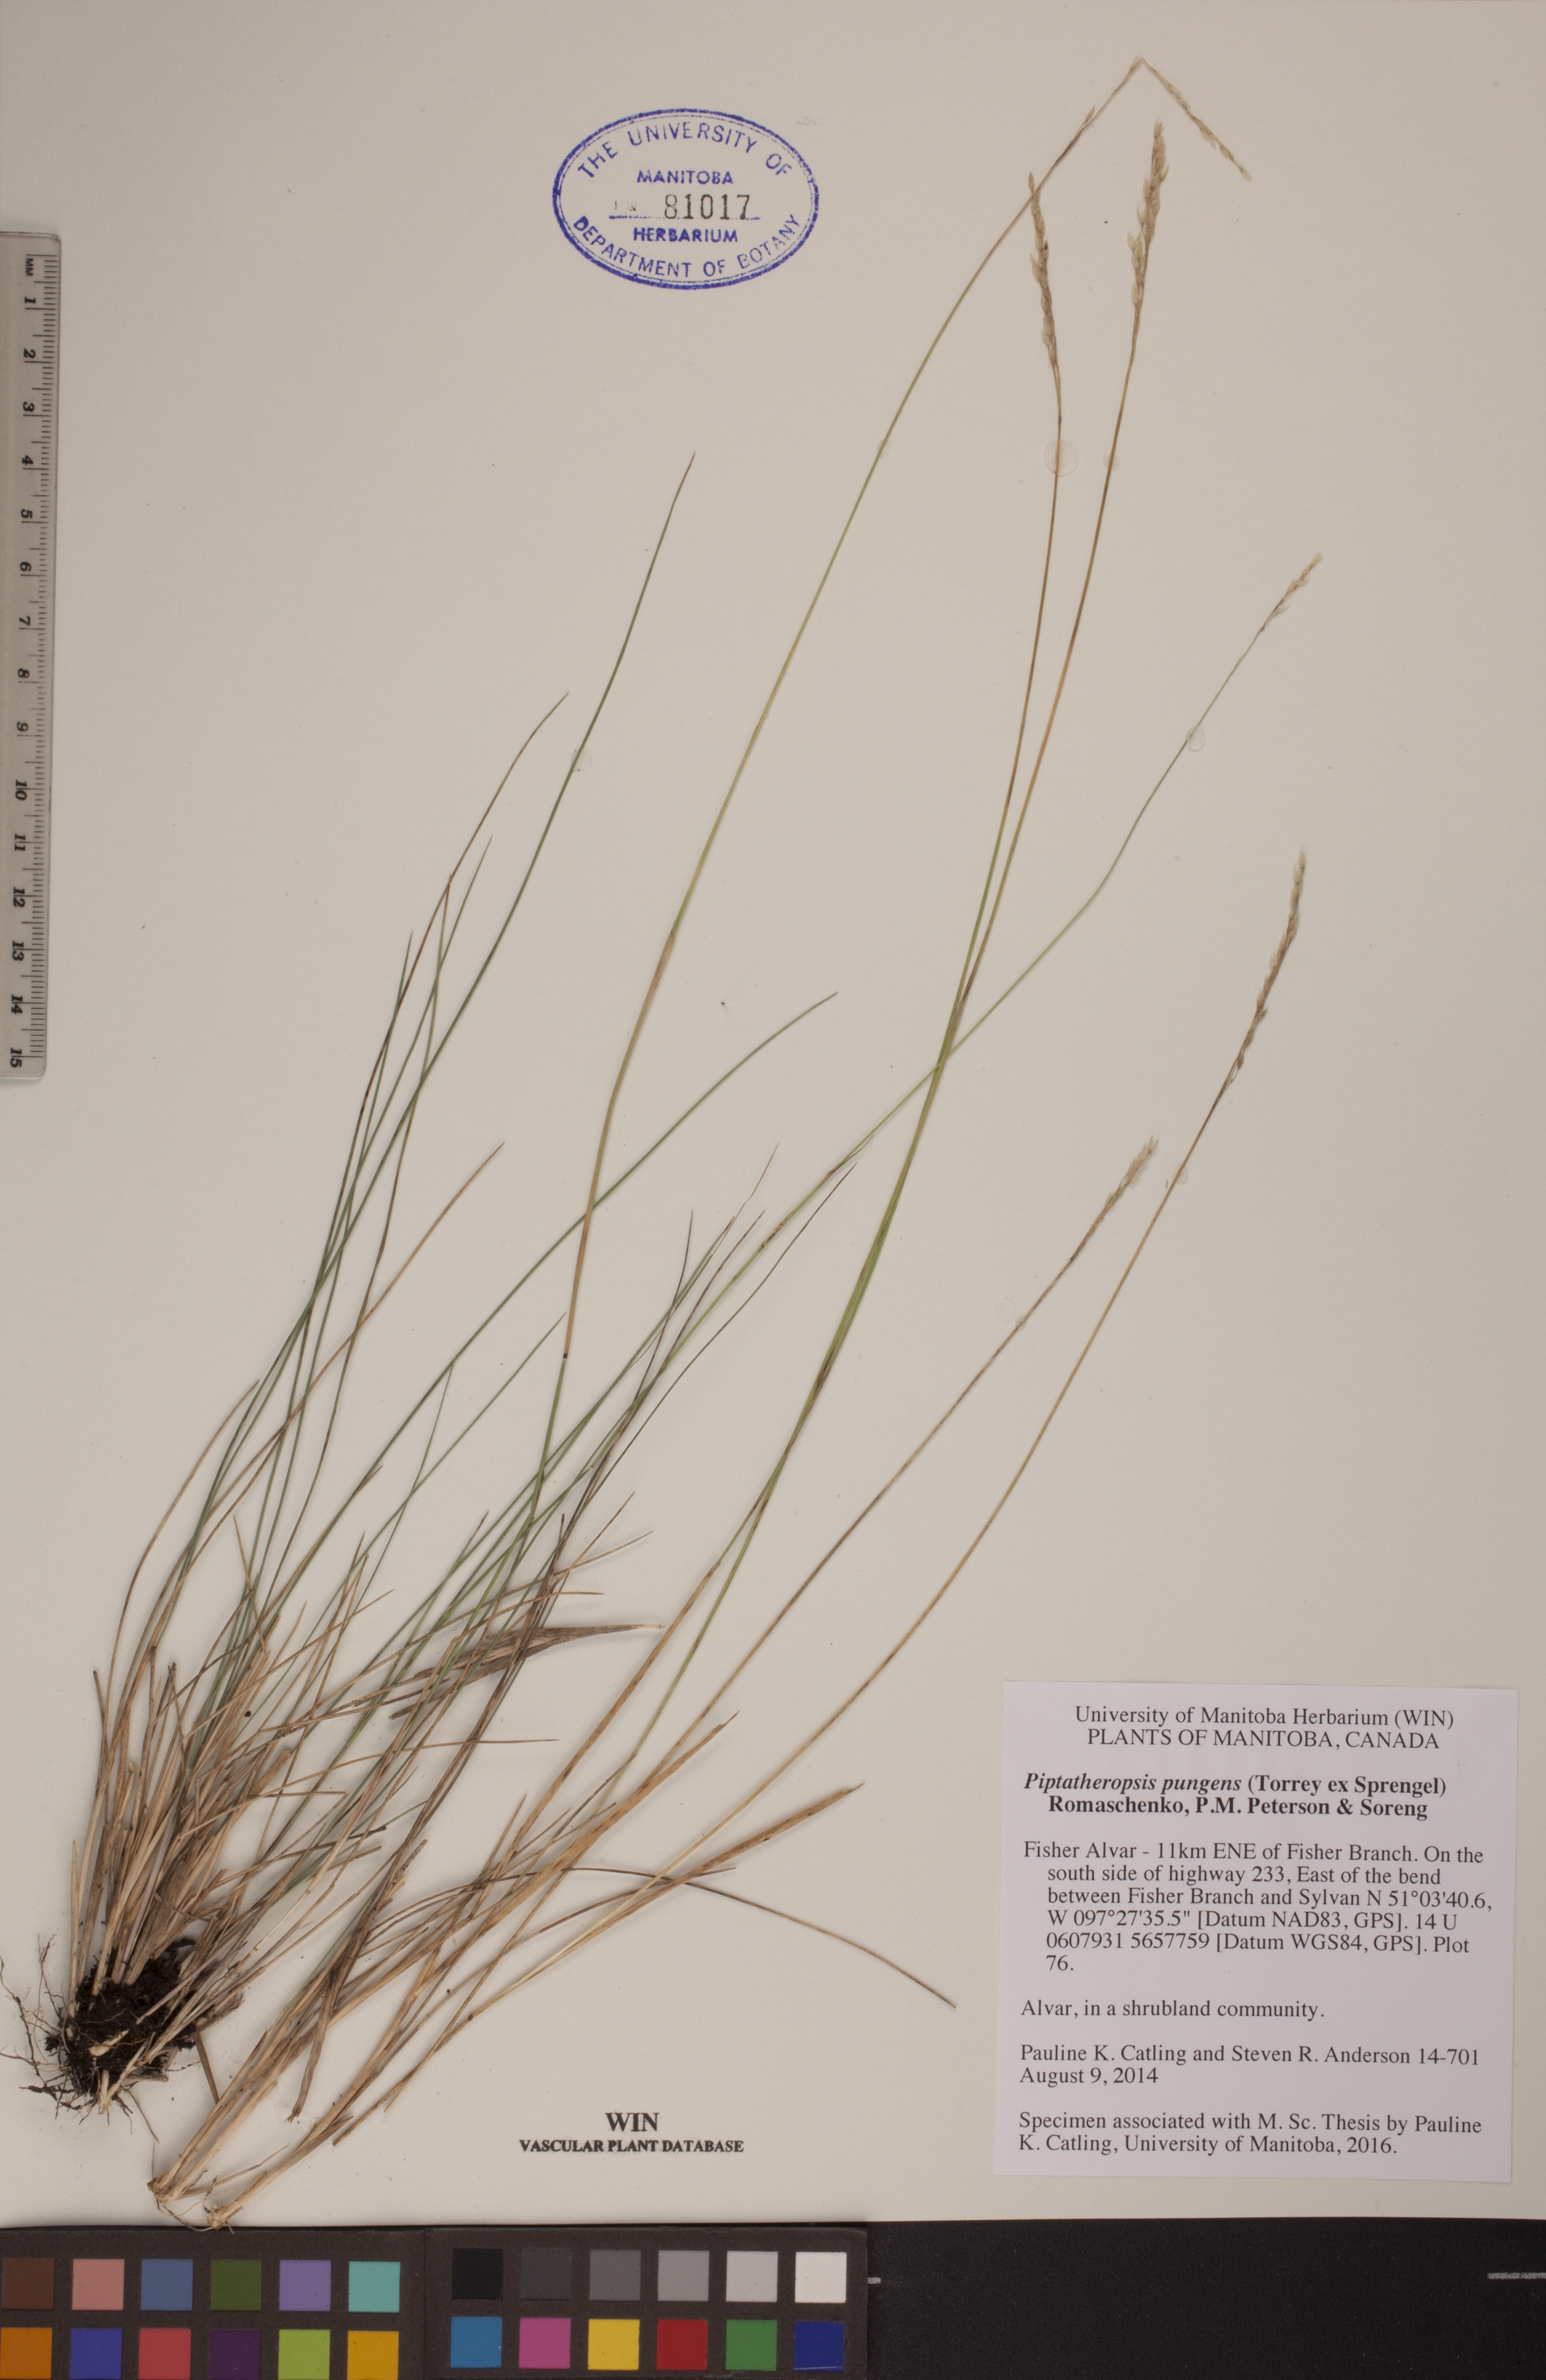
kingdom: Plantae
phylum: Tracheophyta
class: Liliopsida
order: Poales
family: Poaceae
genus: Piptatheropsis
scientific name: Piptatheropsis pungens
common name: Northern ricegrass
